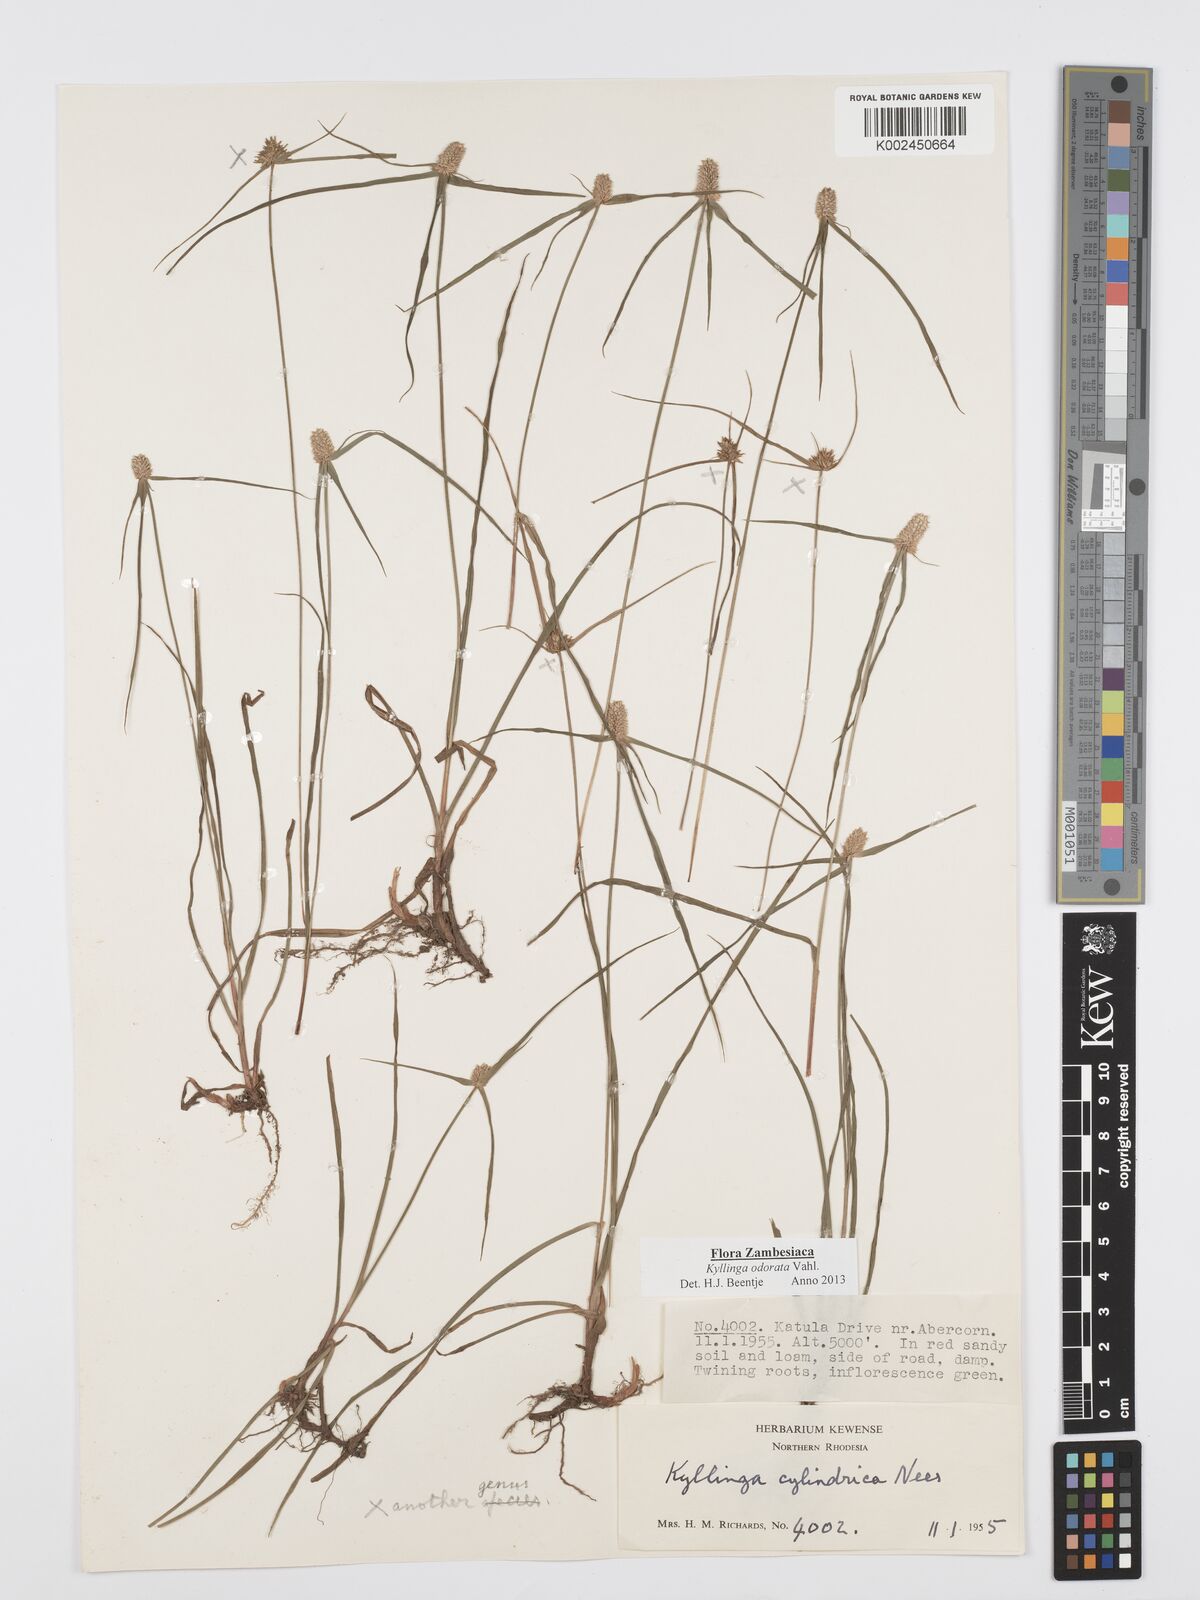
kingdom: Plantae
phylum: Tracheophyta
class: Liliopsida
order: Poales
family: Cyperaceae
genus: Cyperus
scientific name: Cyperus
